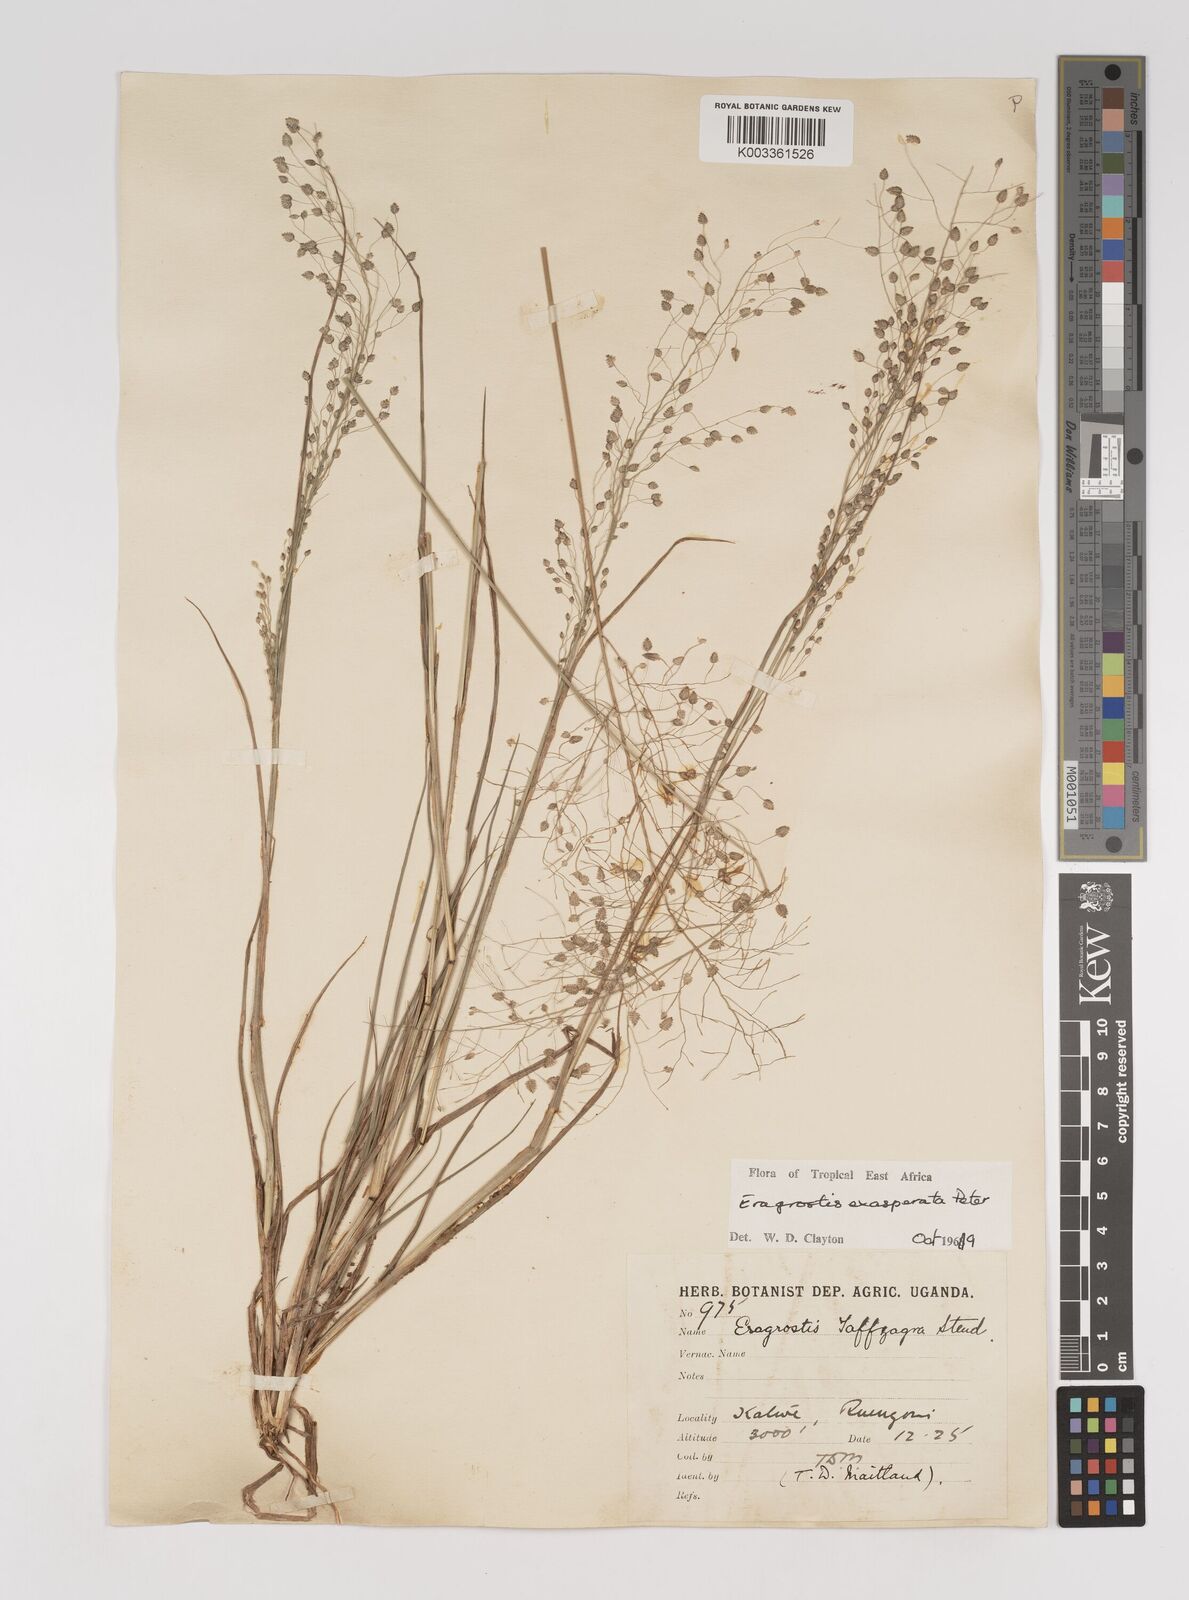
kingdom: Plantae
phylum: Tracheophyta
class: Liliopsida
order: Poales
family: Poaceae
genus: Eragrostis
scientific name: Eragrostis exasperata
